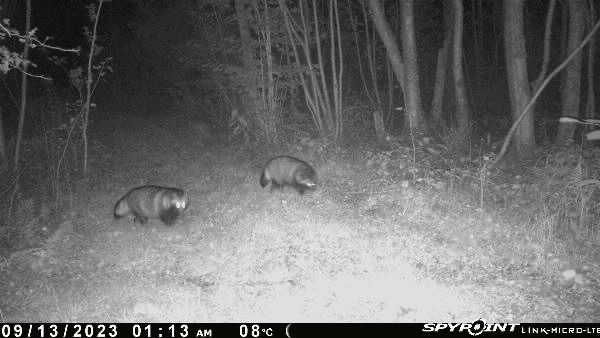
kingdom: Animalia
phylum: Chordata
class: Mammalia
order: Carnivora
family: Canidae
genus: Nyctereutes
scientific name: Nyctereutes procyonoides
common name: Mårhund
